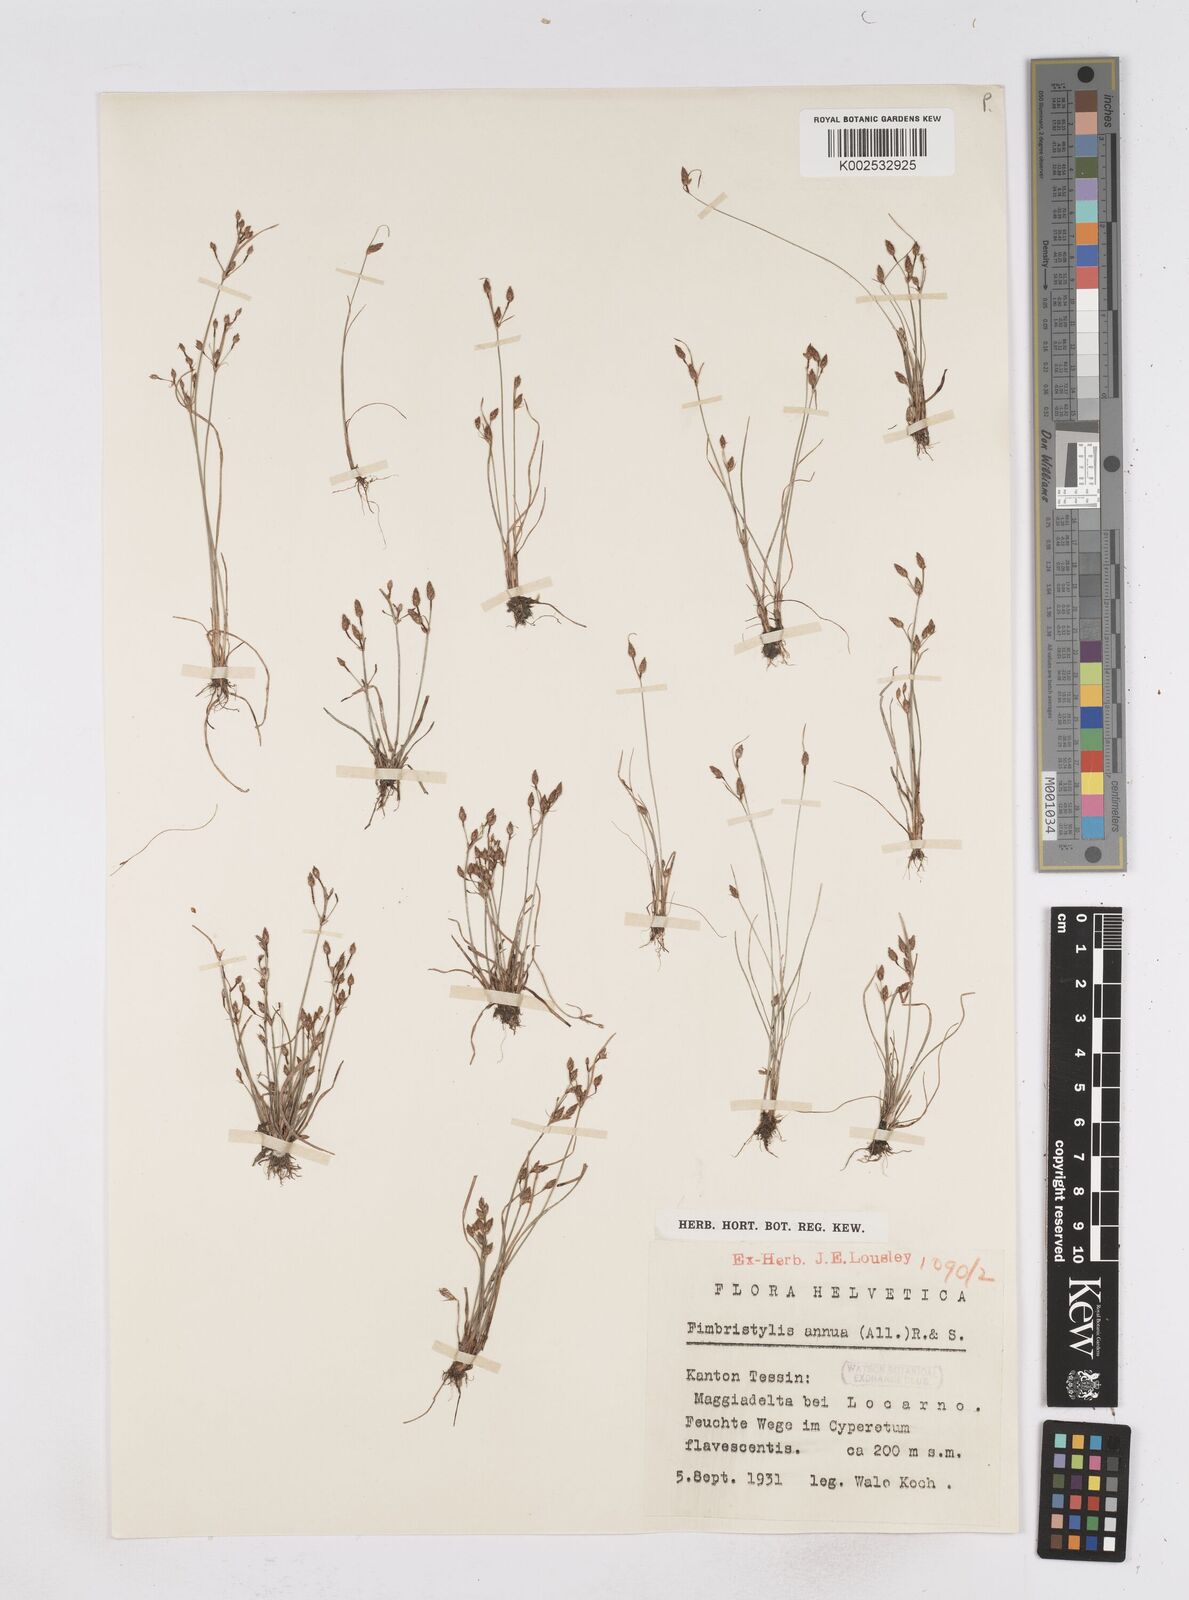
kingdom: Plantae
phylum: Tracheophyta
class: Liliopsida
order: Poales
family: Cyperaceae
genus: Fimbristylis
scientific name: Fimbristylis dichotoma
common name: Forked fimbry
